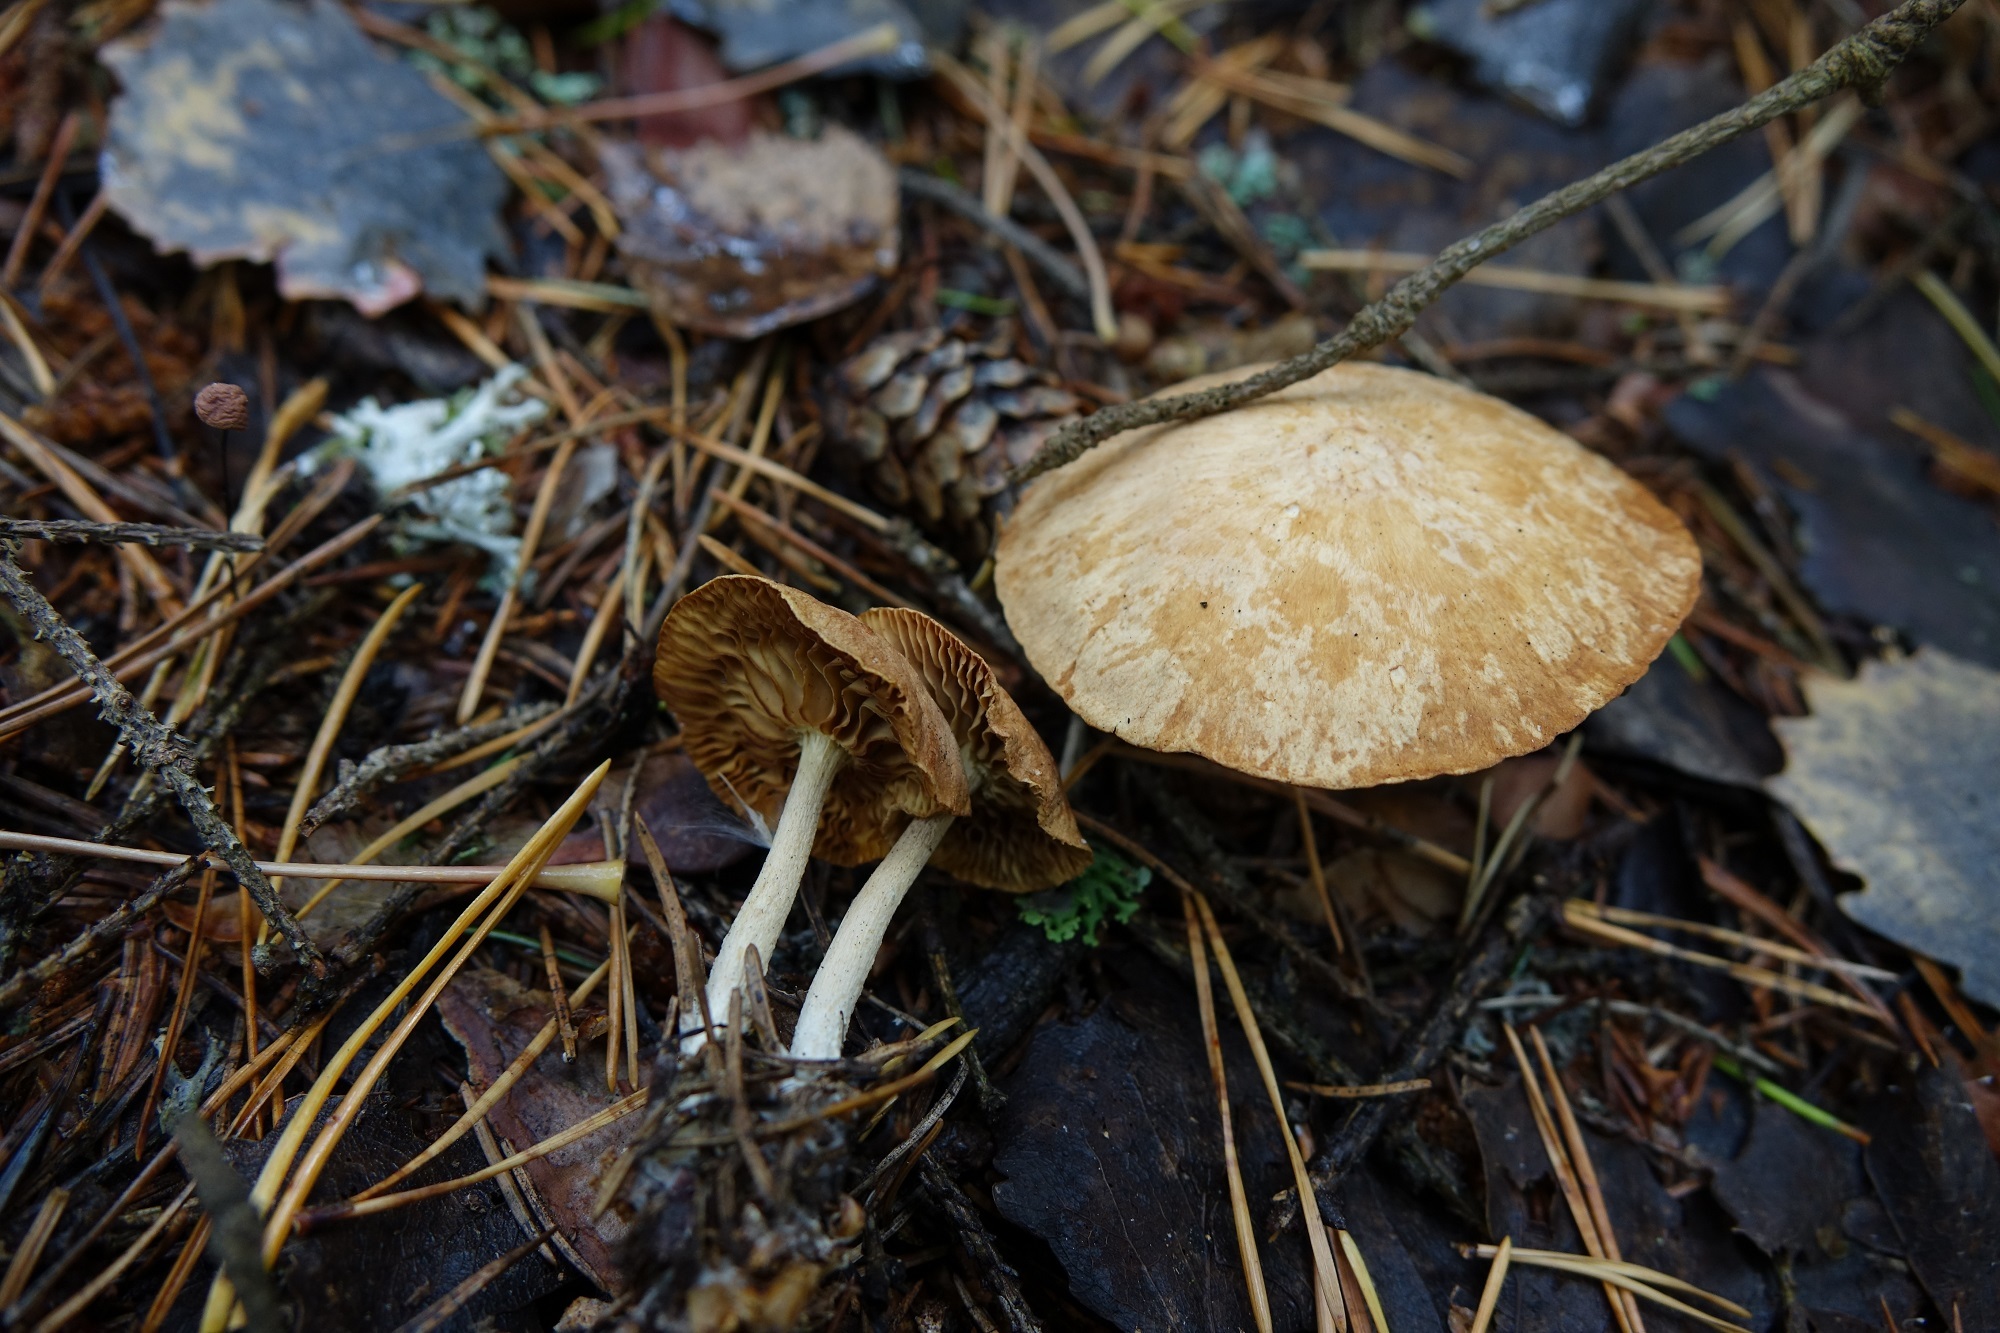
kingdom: Fungi
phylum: Basidiomycota
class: Agaricomycetes
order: Agaricales
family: Omphalotaceae
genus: Collybiopsis
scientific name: Collybiopsis peronata
